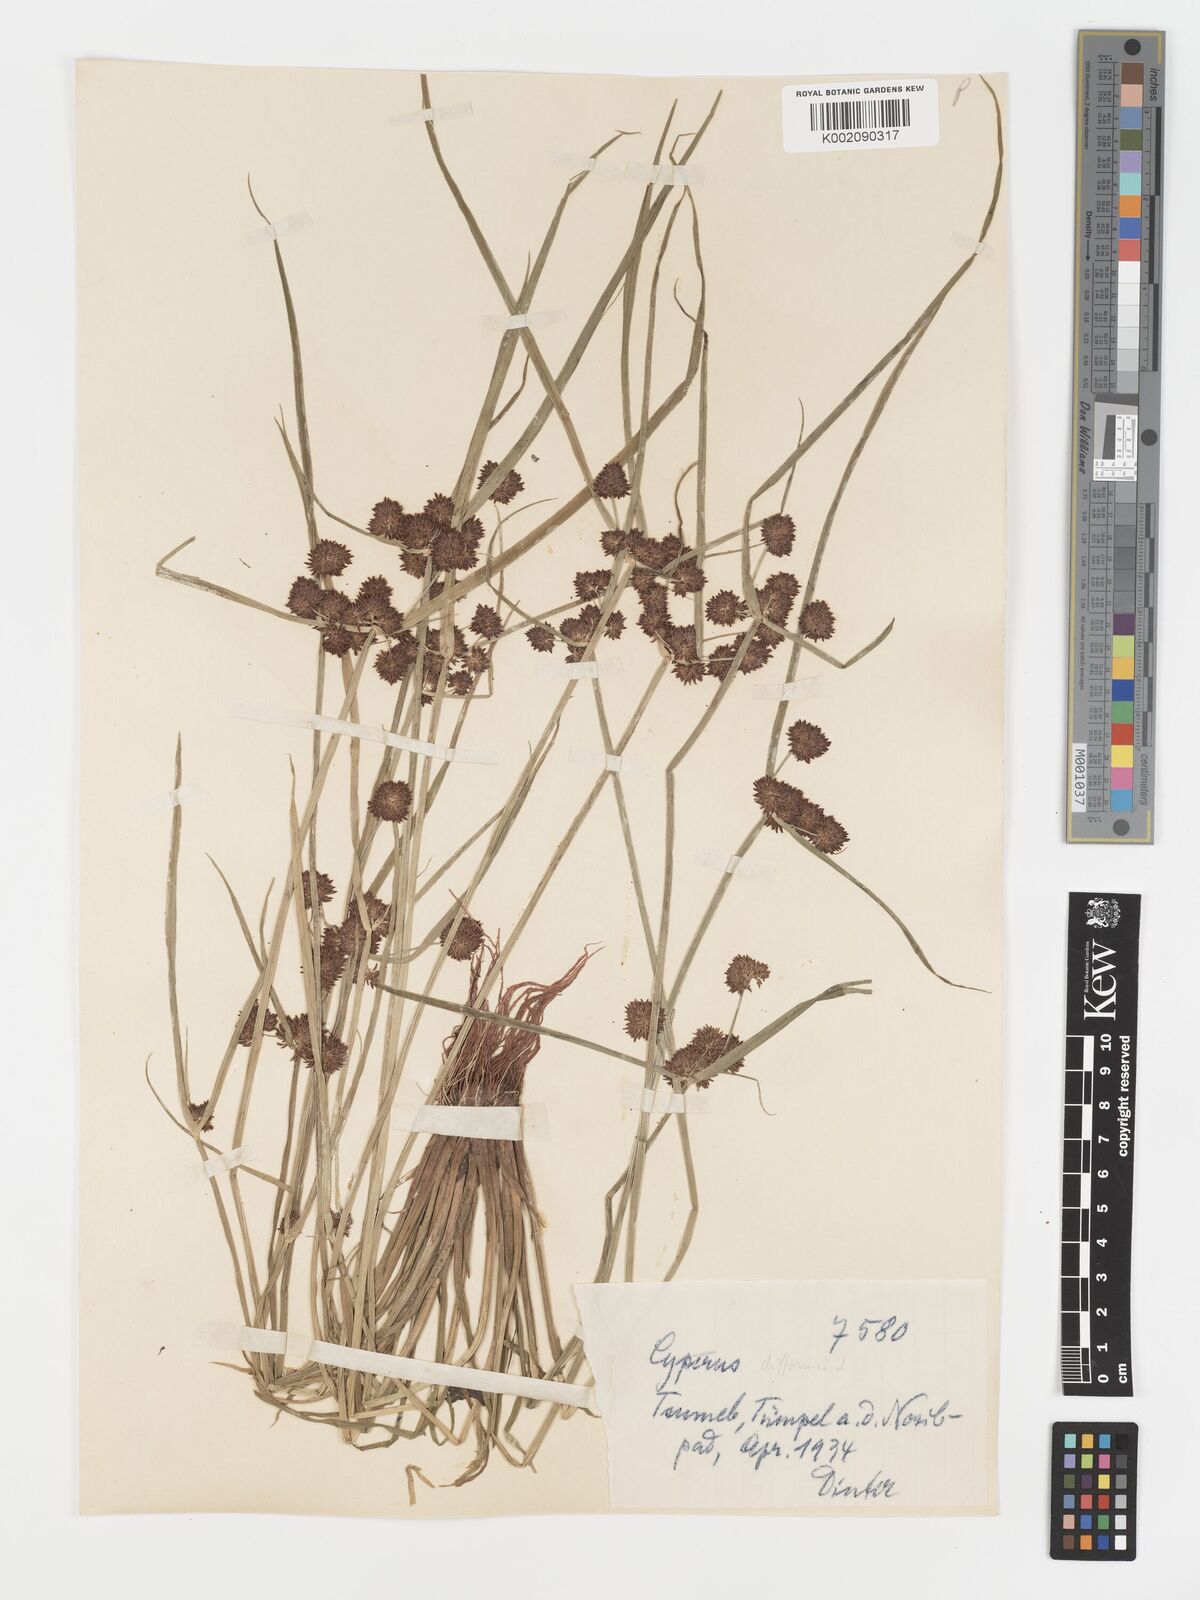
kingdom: Plantae
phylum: Tracheophyta
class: Liliopsida
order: Poales
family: Cyperaceae
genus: Cyperus
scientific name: Cyperus difformis
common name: Variable flatsedge
